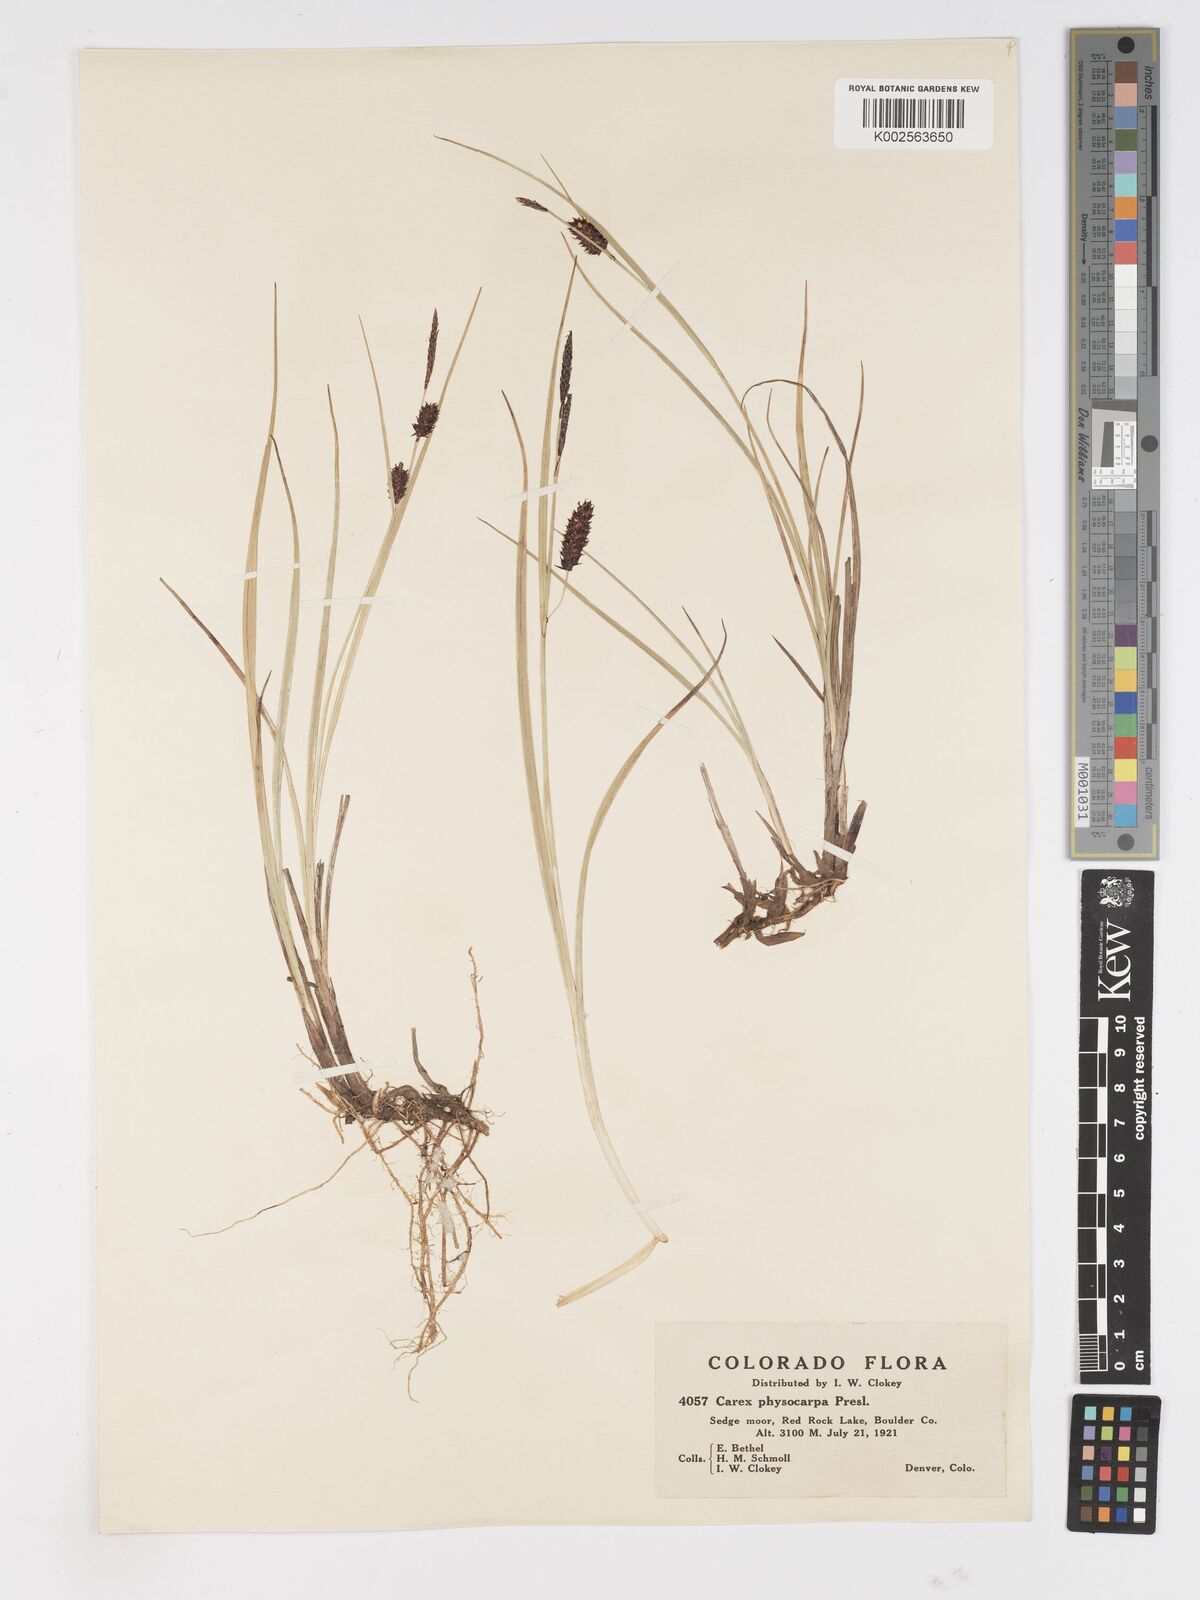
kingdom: Plantae
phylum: Tracheophyta
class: Liliopsida
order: Poales
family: Cyperaceae
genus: Carex
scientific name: Carex saxatilis
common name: Russet sedge
